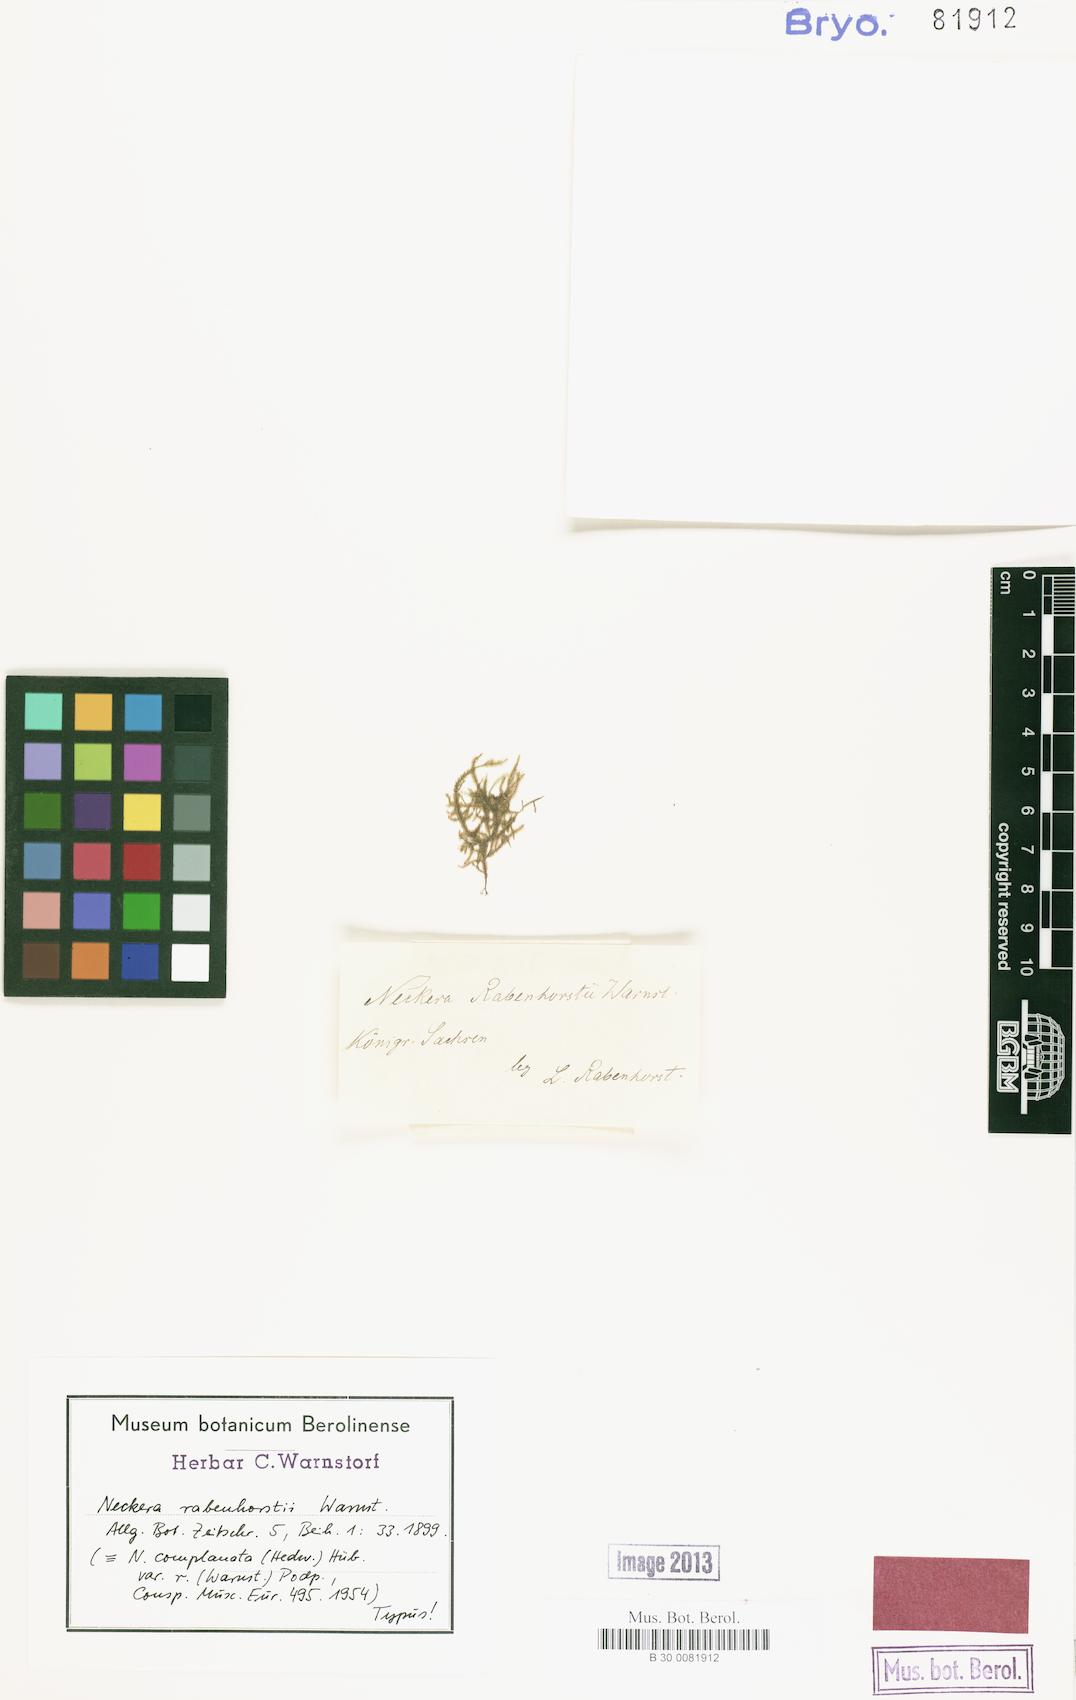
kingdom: Plantae
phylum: Bryophyta
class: Bryopsida
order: Hypnales
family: Neckeraceae
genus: Alleniella
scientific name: Alleniella complanata
